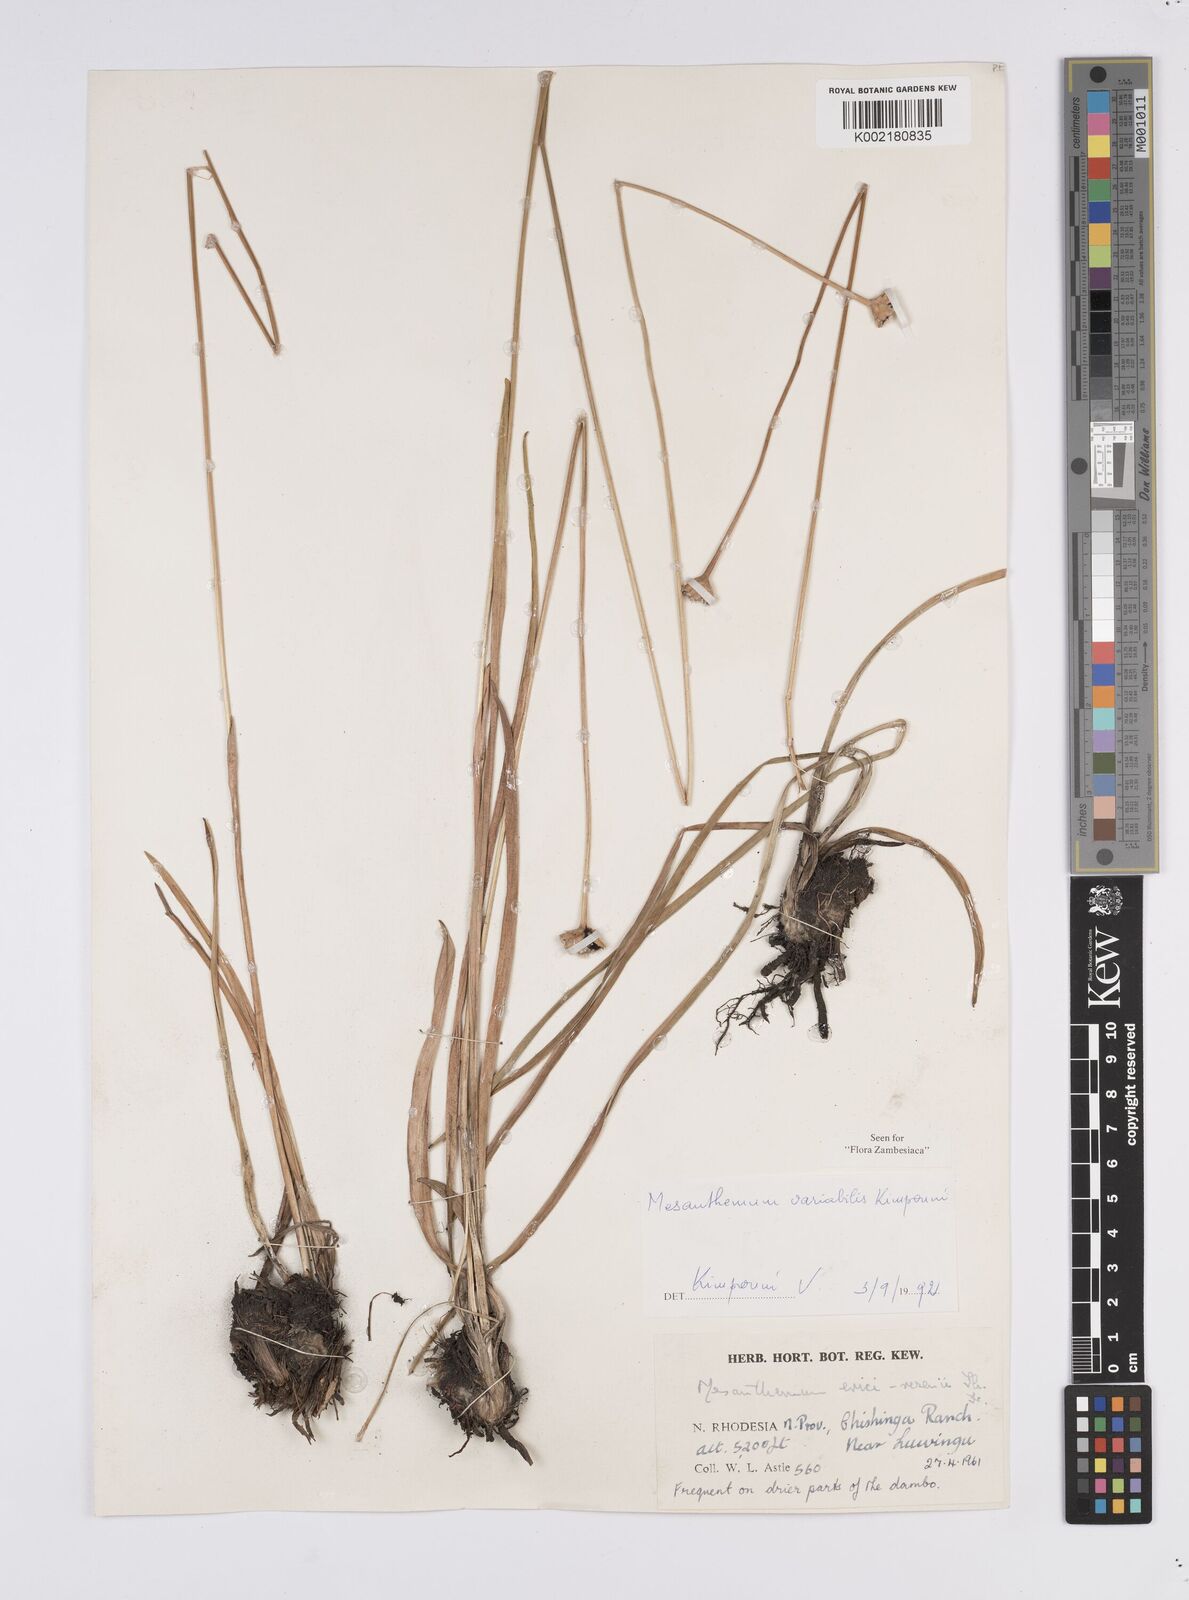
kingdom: Plantae
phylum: Tracheophyta
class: Liliopsida
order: Poales
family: Eriocaulaceae
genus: Mesanthemum
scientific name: Mesanthemum variabile
